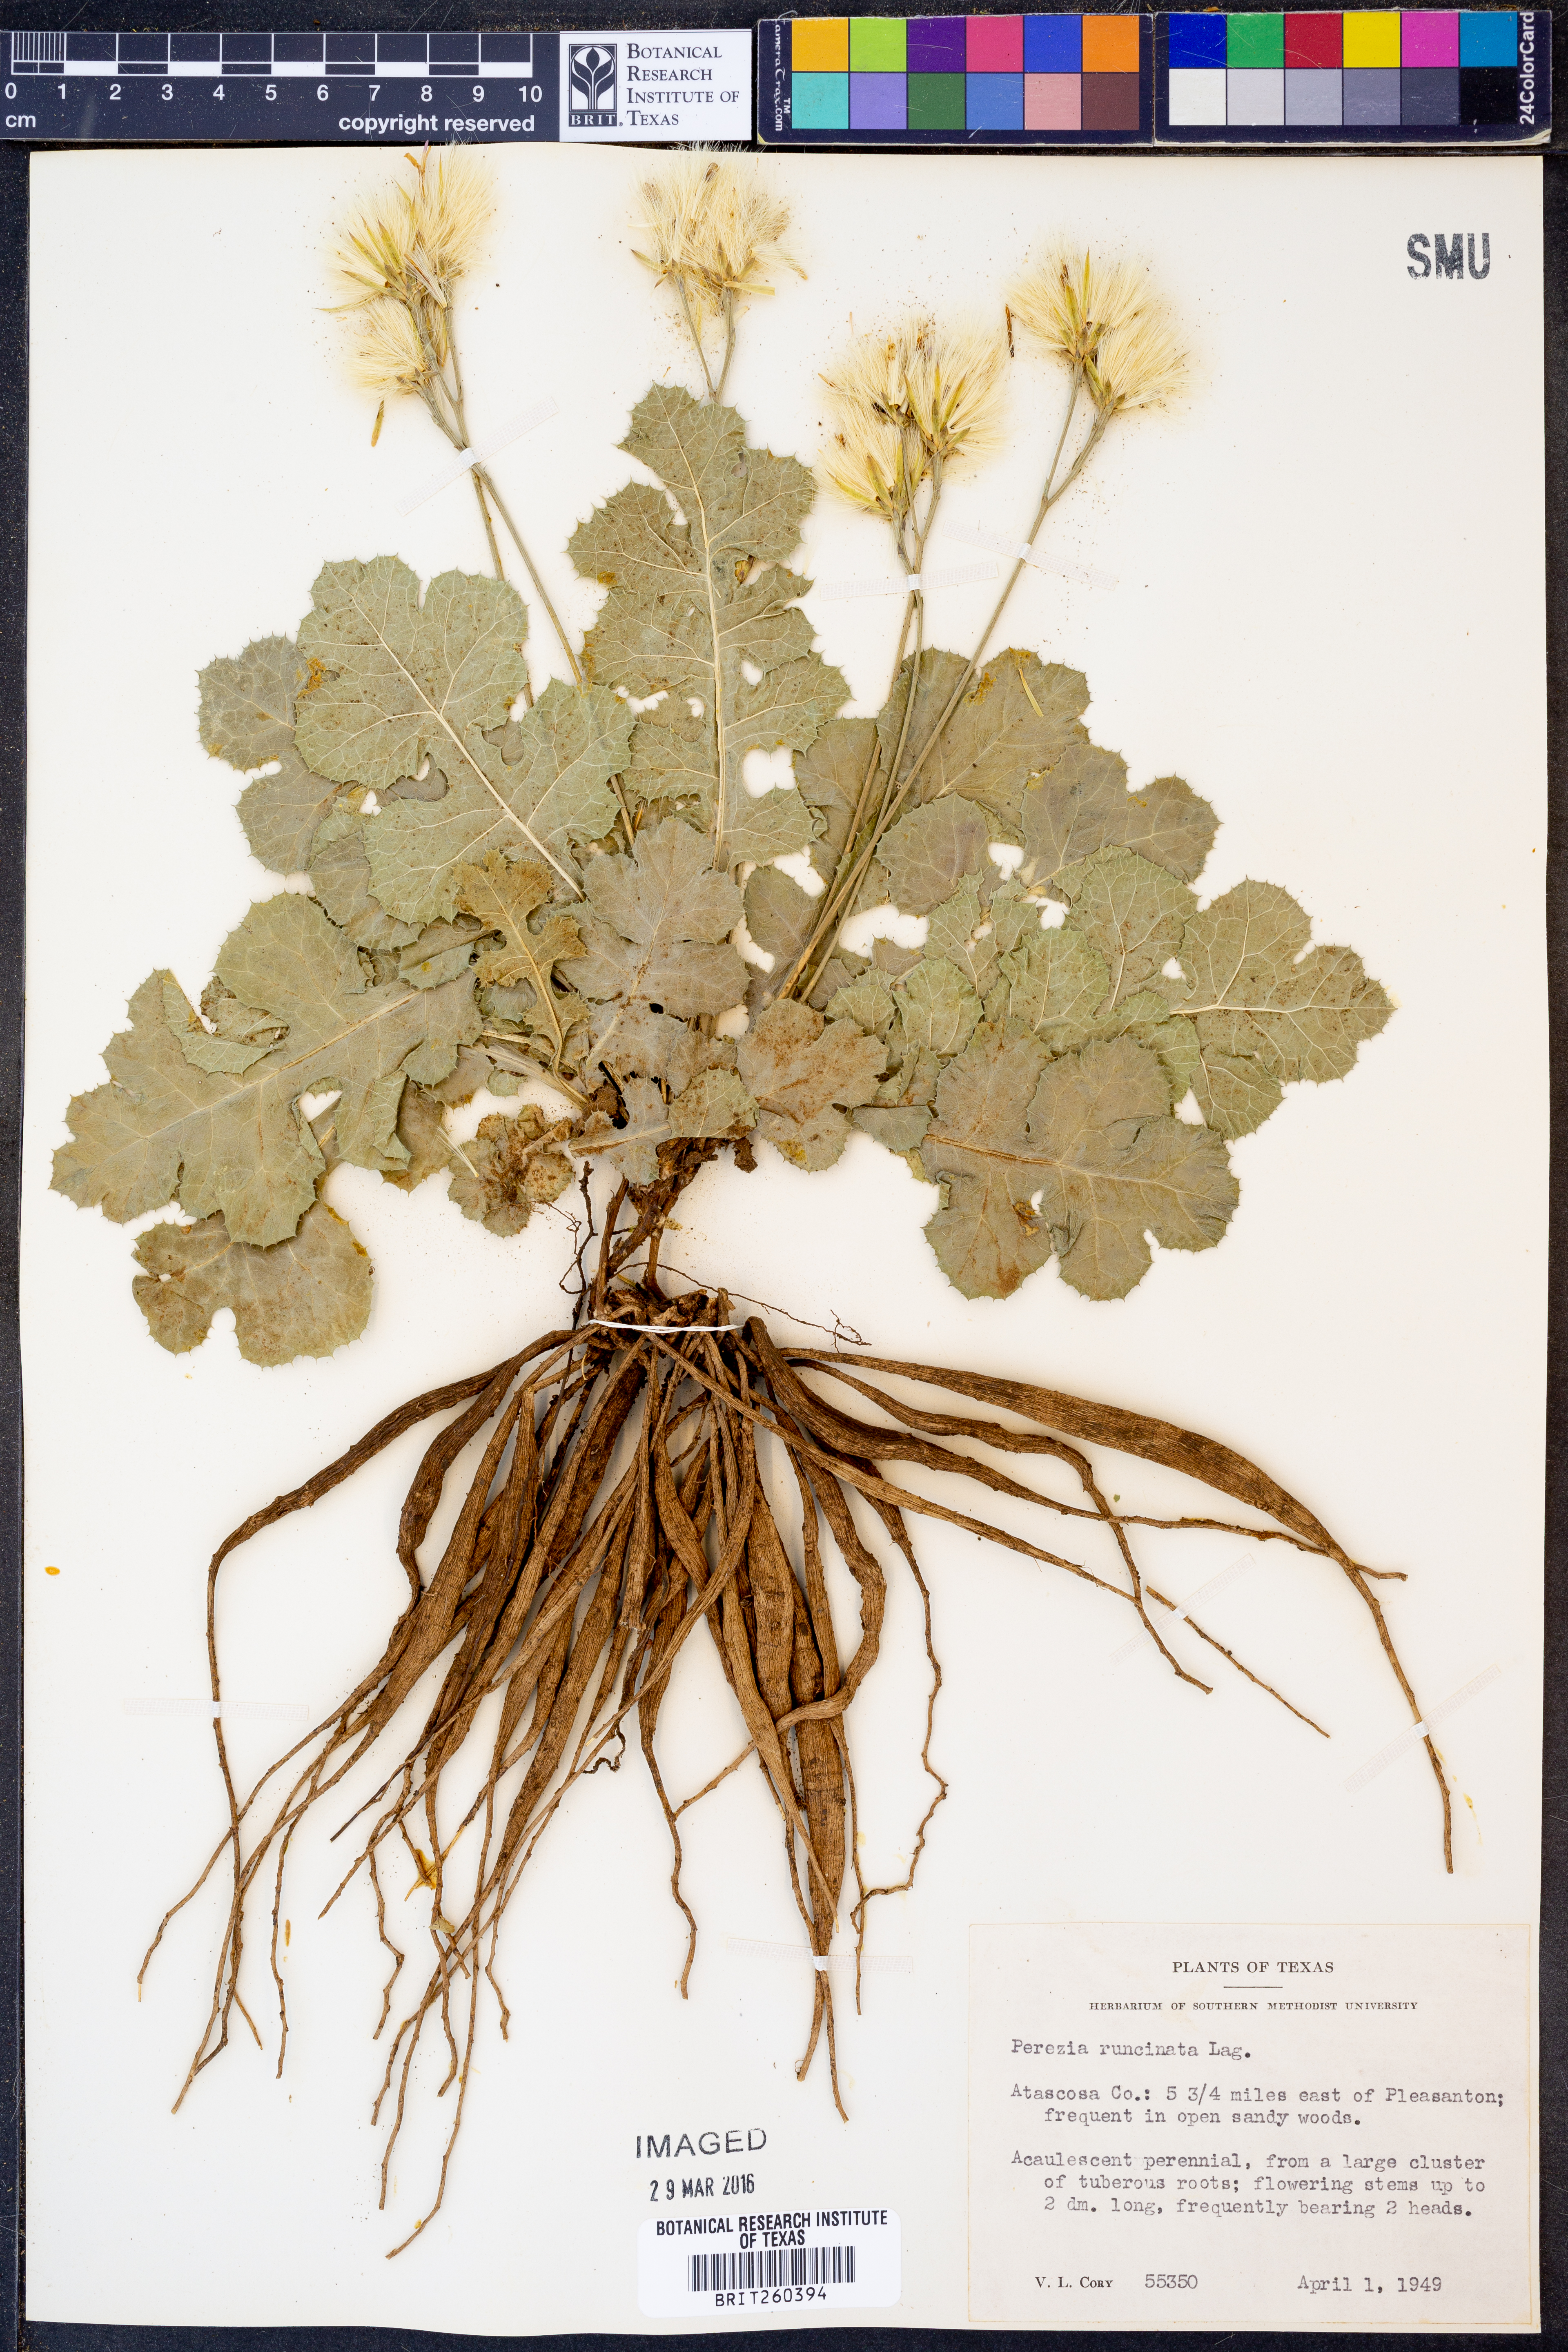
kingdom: Plantae
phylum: Tracheophyta
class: Magnoliopsida
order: Asterales
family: Asteraceae
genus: Acourtia
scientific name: Acourtia runcinata
